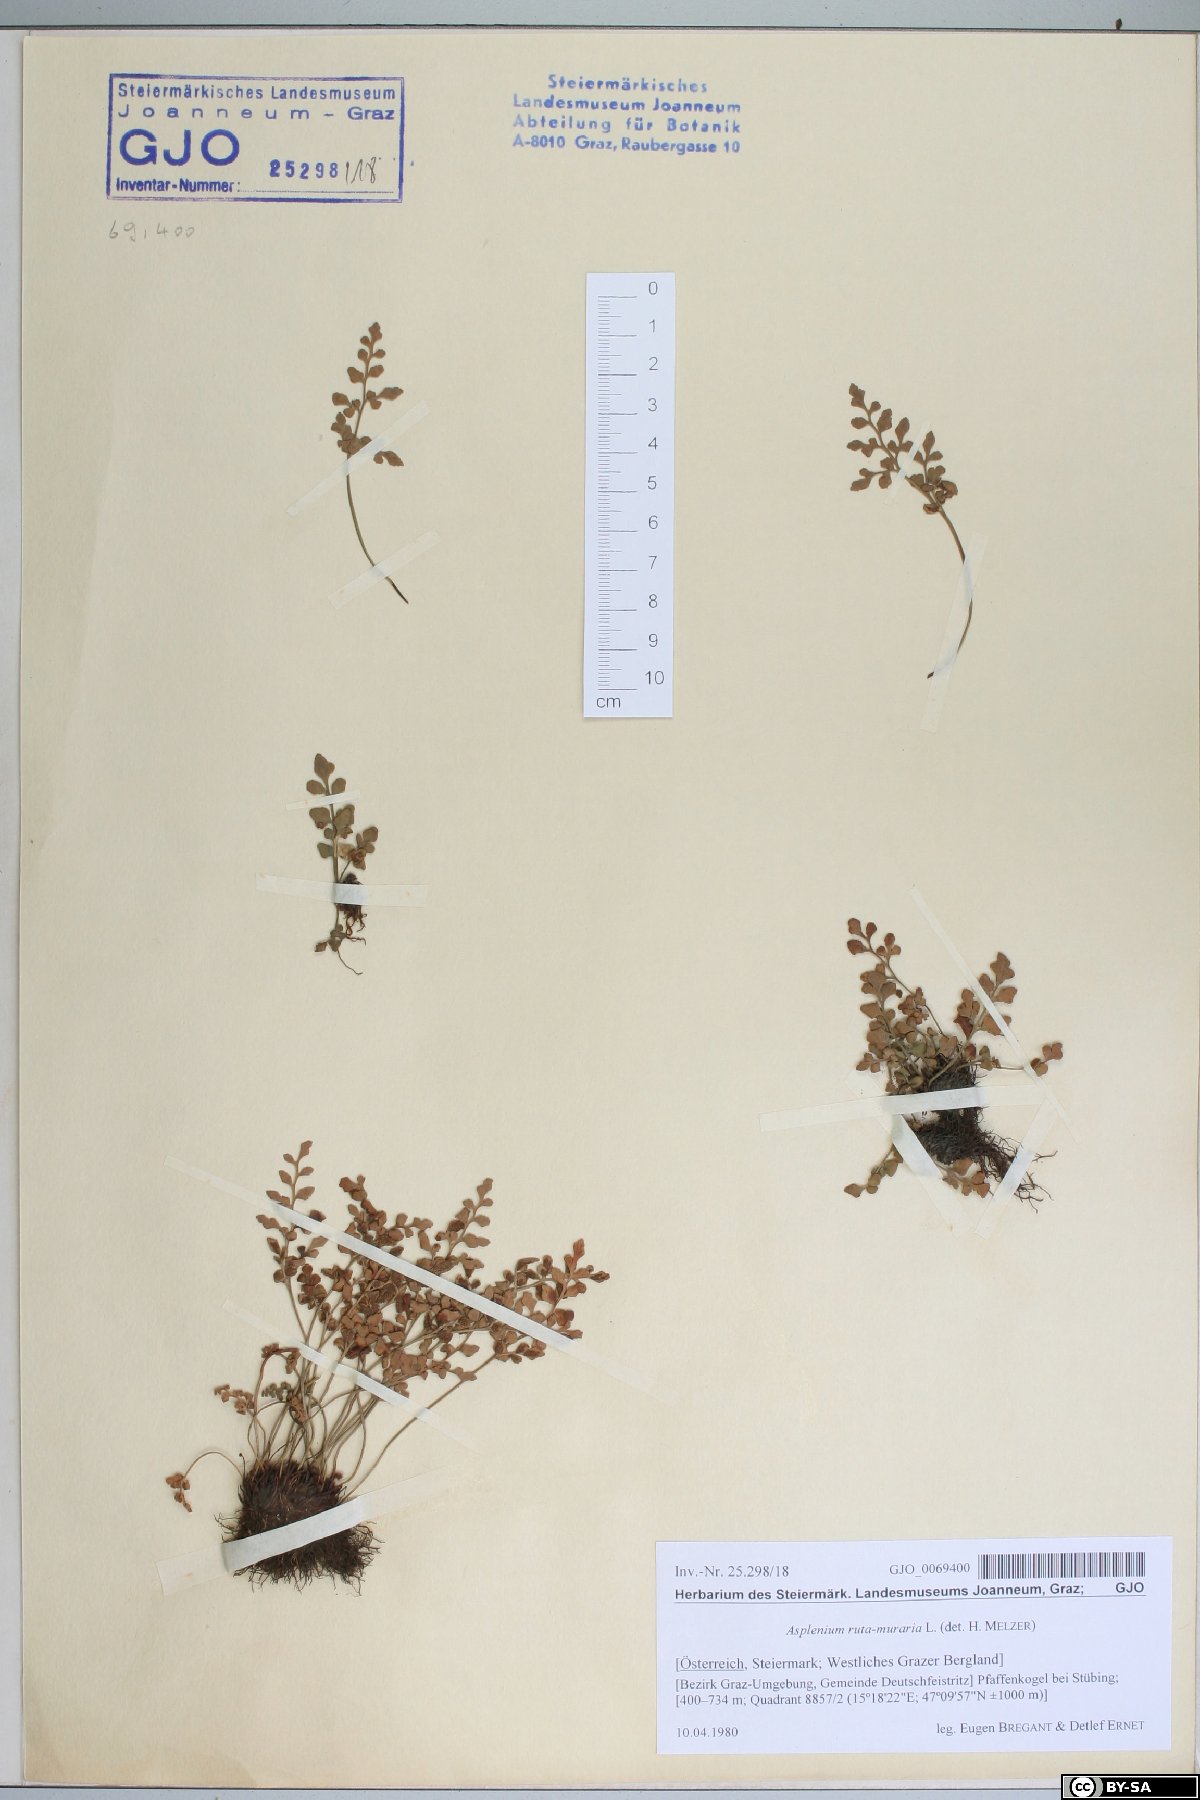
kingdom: Plantae
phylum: Tracheophyta
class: Polypodiopsida
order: Polypodiales
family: Aspleniaceae
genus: Asplenium
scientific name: Asplenium ruta-muraria
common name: Wall-rue
